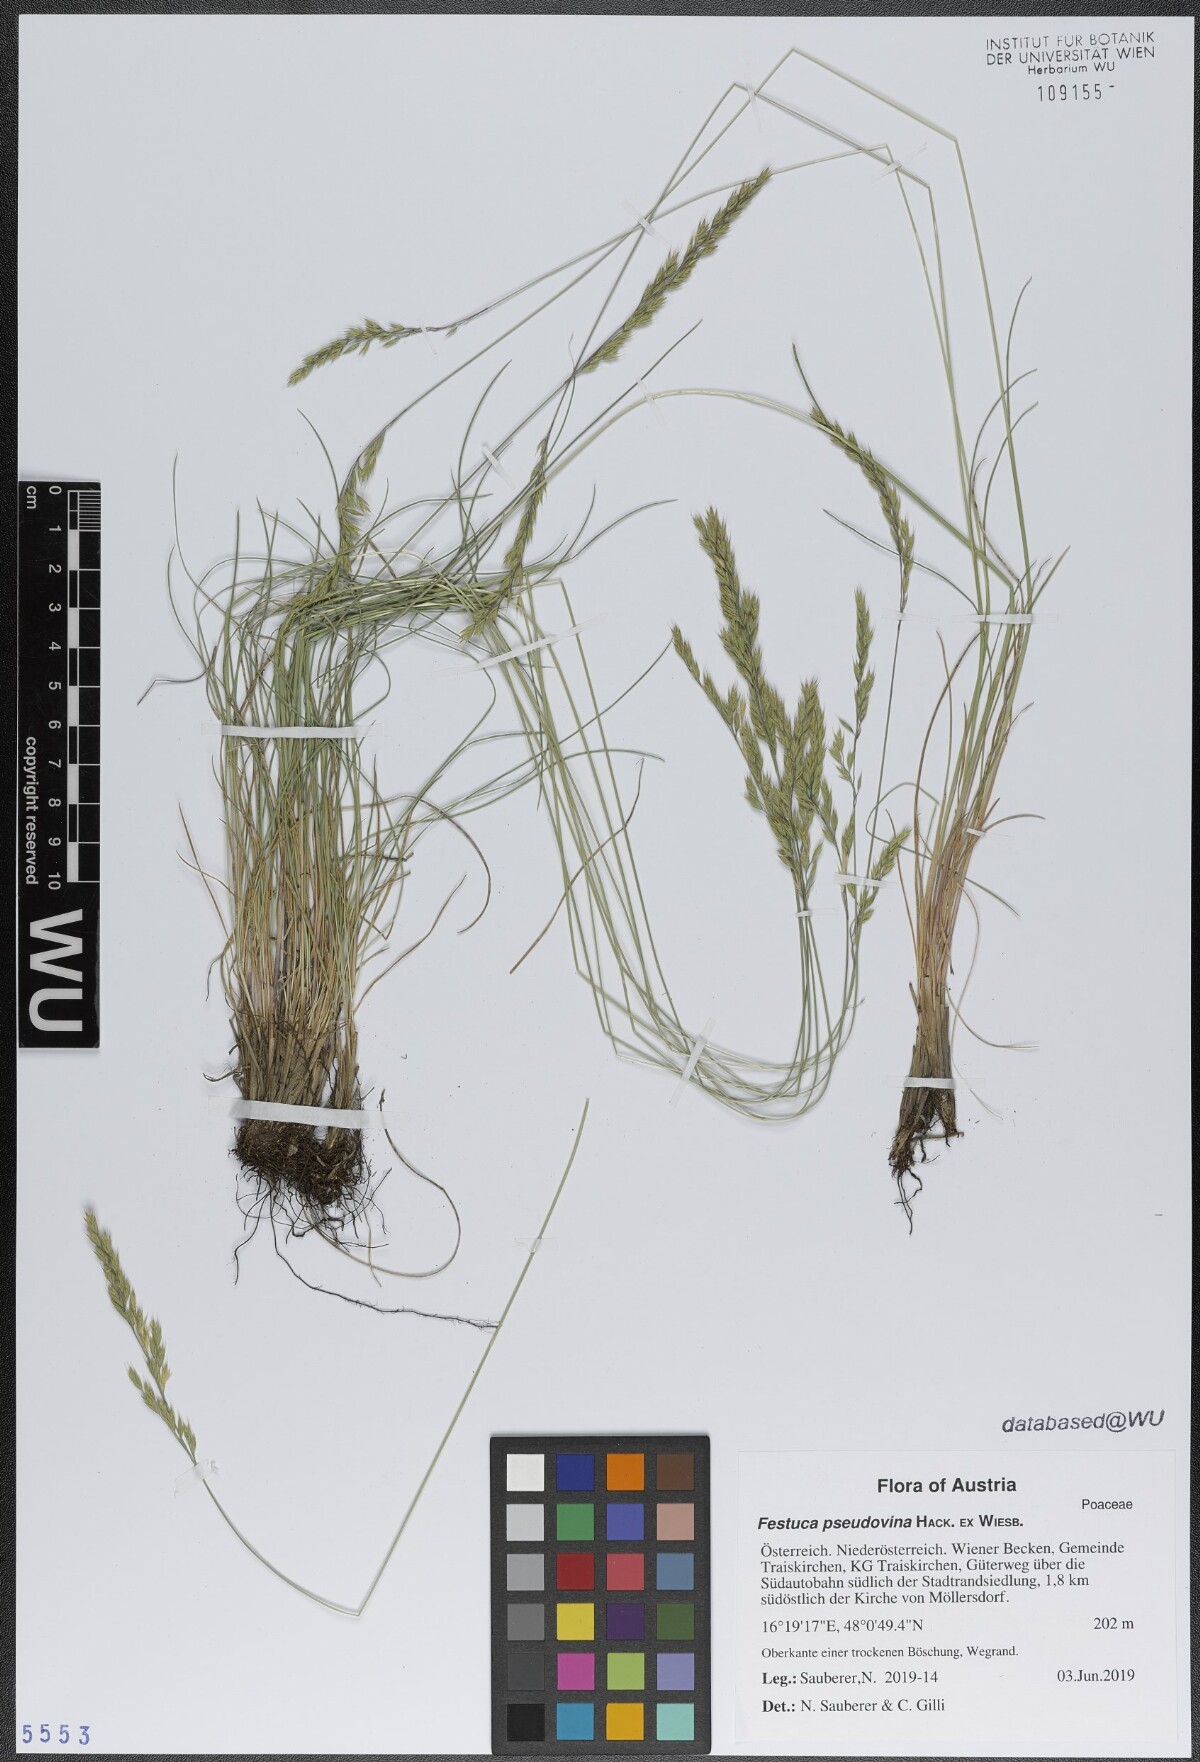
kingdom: Plantae
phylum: Tracheophyta
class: Liliopsida
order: Poales
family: Poaceae
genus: Festuca
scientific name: Festuca pulchra
